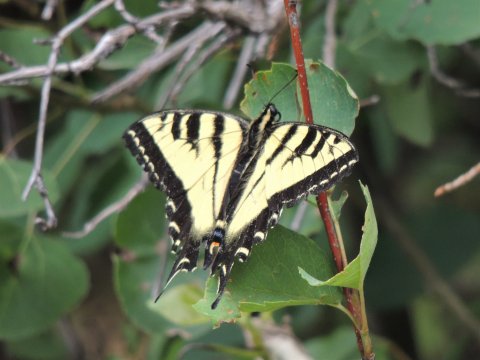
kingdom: Animalia
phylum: Arthropoda
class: Insecta
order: Lepidoptera
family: Papilionidae
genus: Pterourus
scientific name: Pterourus rutulus
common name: Western Tiger Swallowtail
